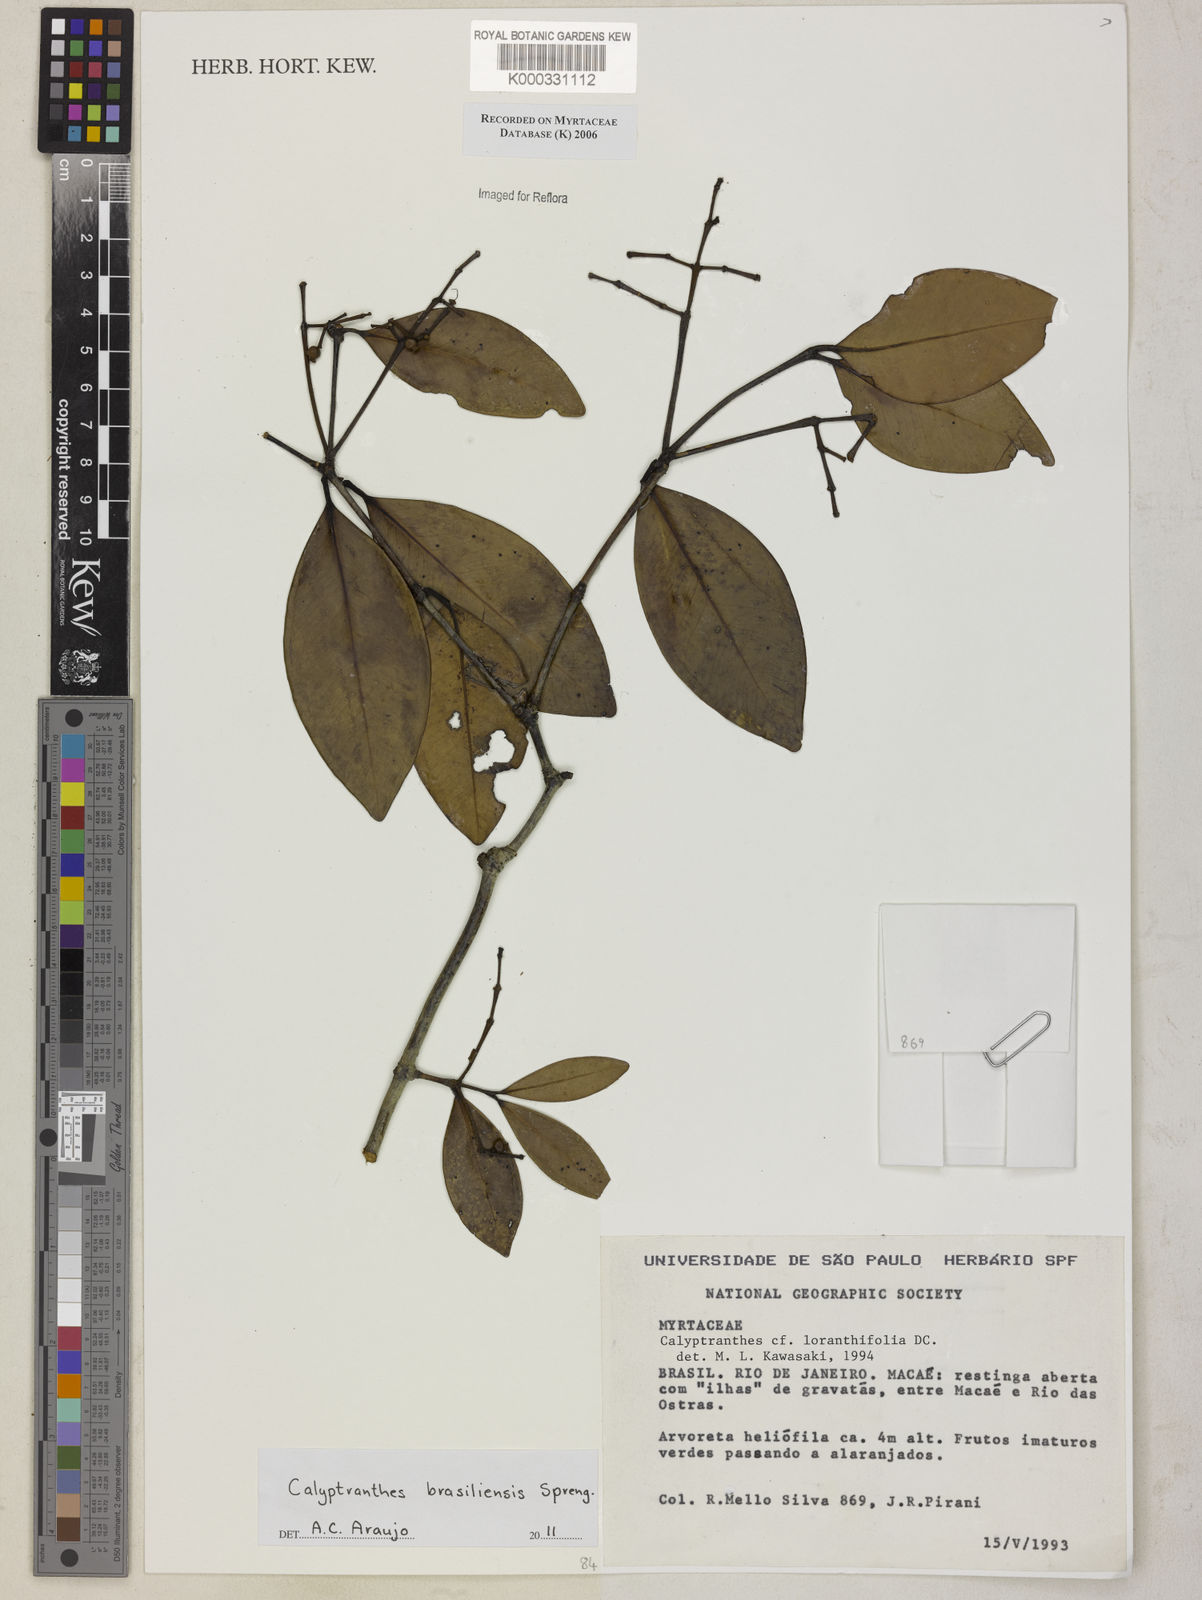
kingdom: Plantae
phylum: Tracheophyta
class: Magnoliopsida
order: Myrtales
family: Myrtaceae
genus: Myrcia
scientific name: Myrcia loranthifolia
